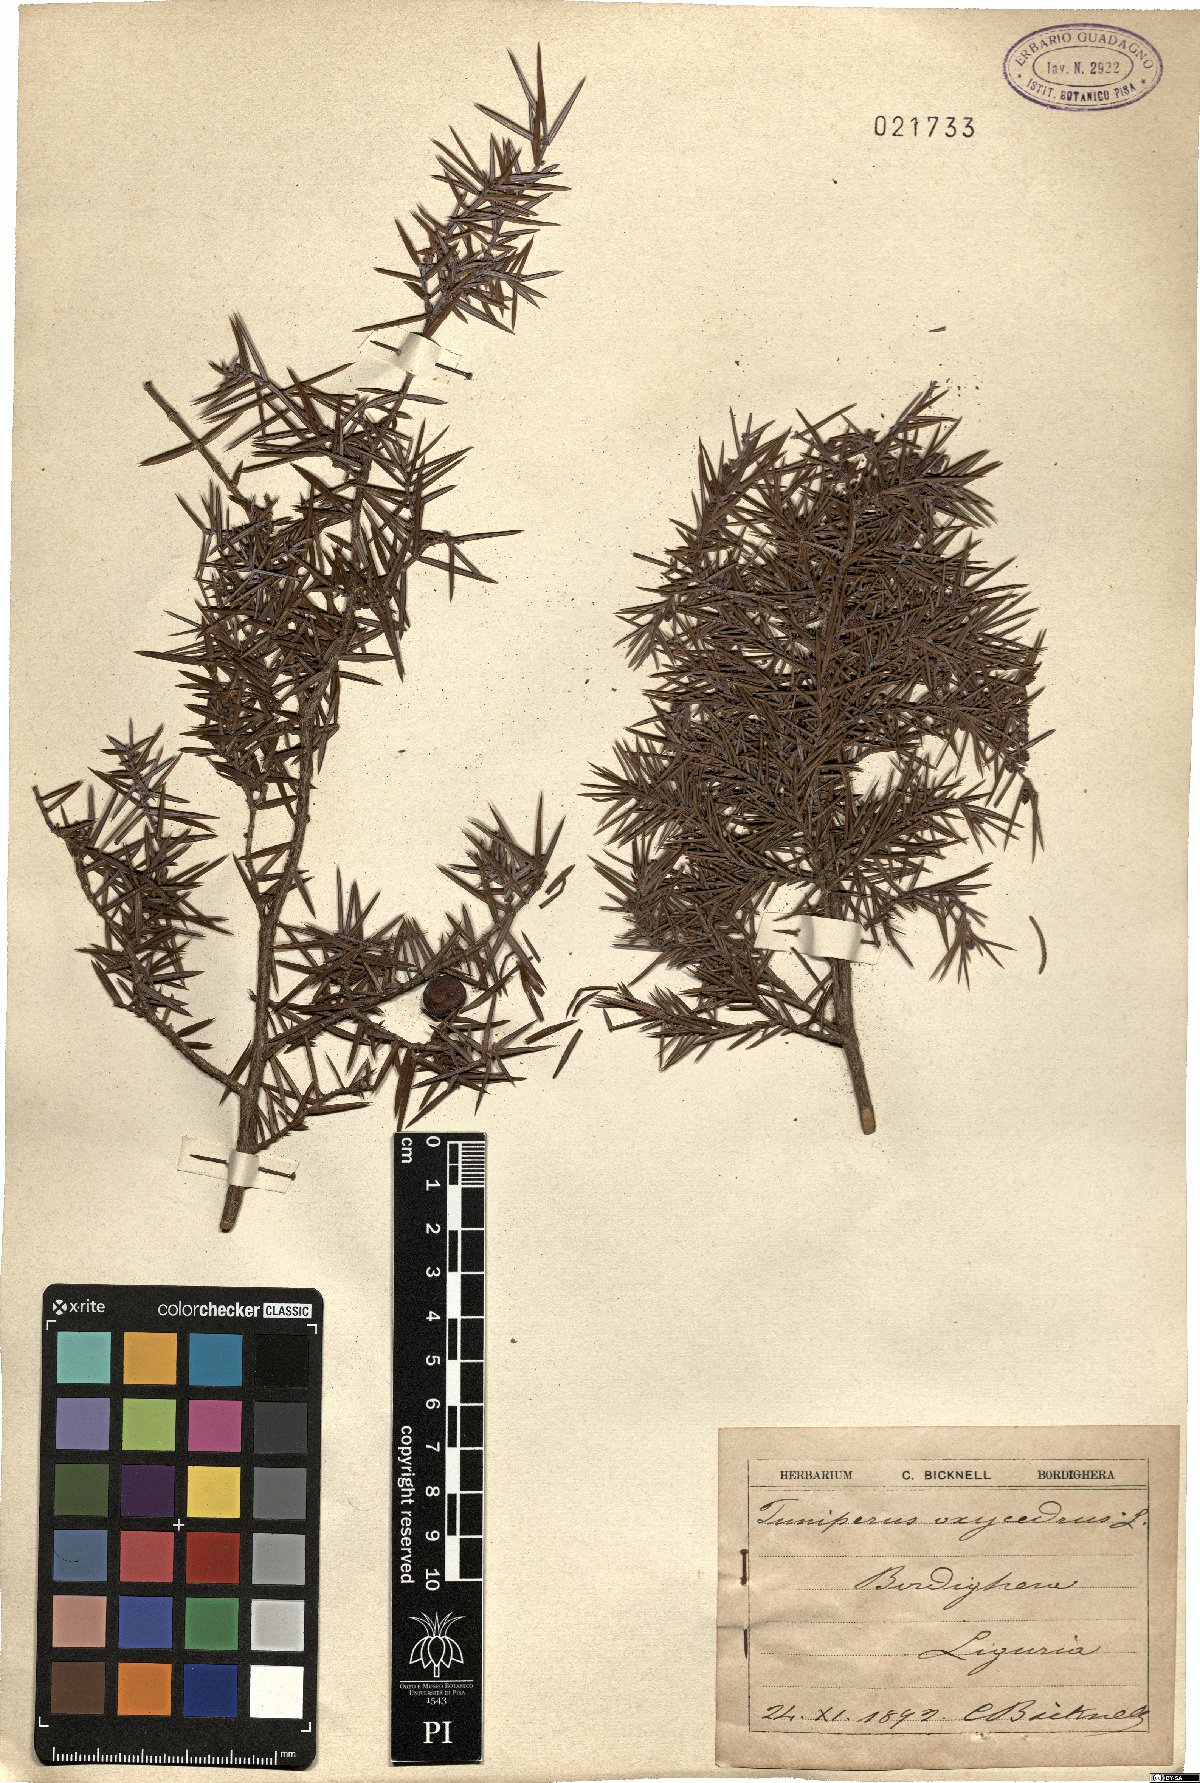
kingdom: Plantae
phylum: Tracheophyta
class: Pinopsida
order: Pinales
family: Cupressaceae
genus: Juniperus
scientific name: Juniperus oxycedrus
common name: Prickly juniper
